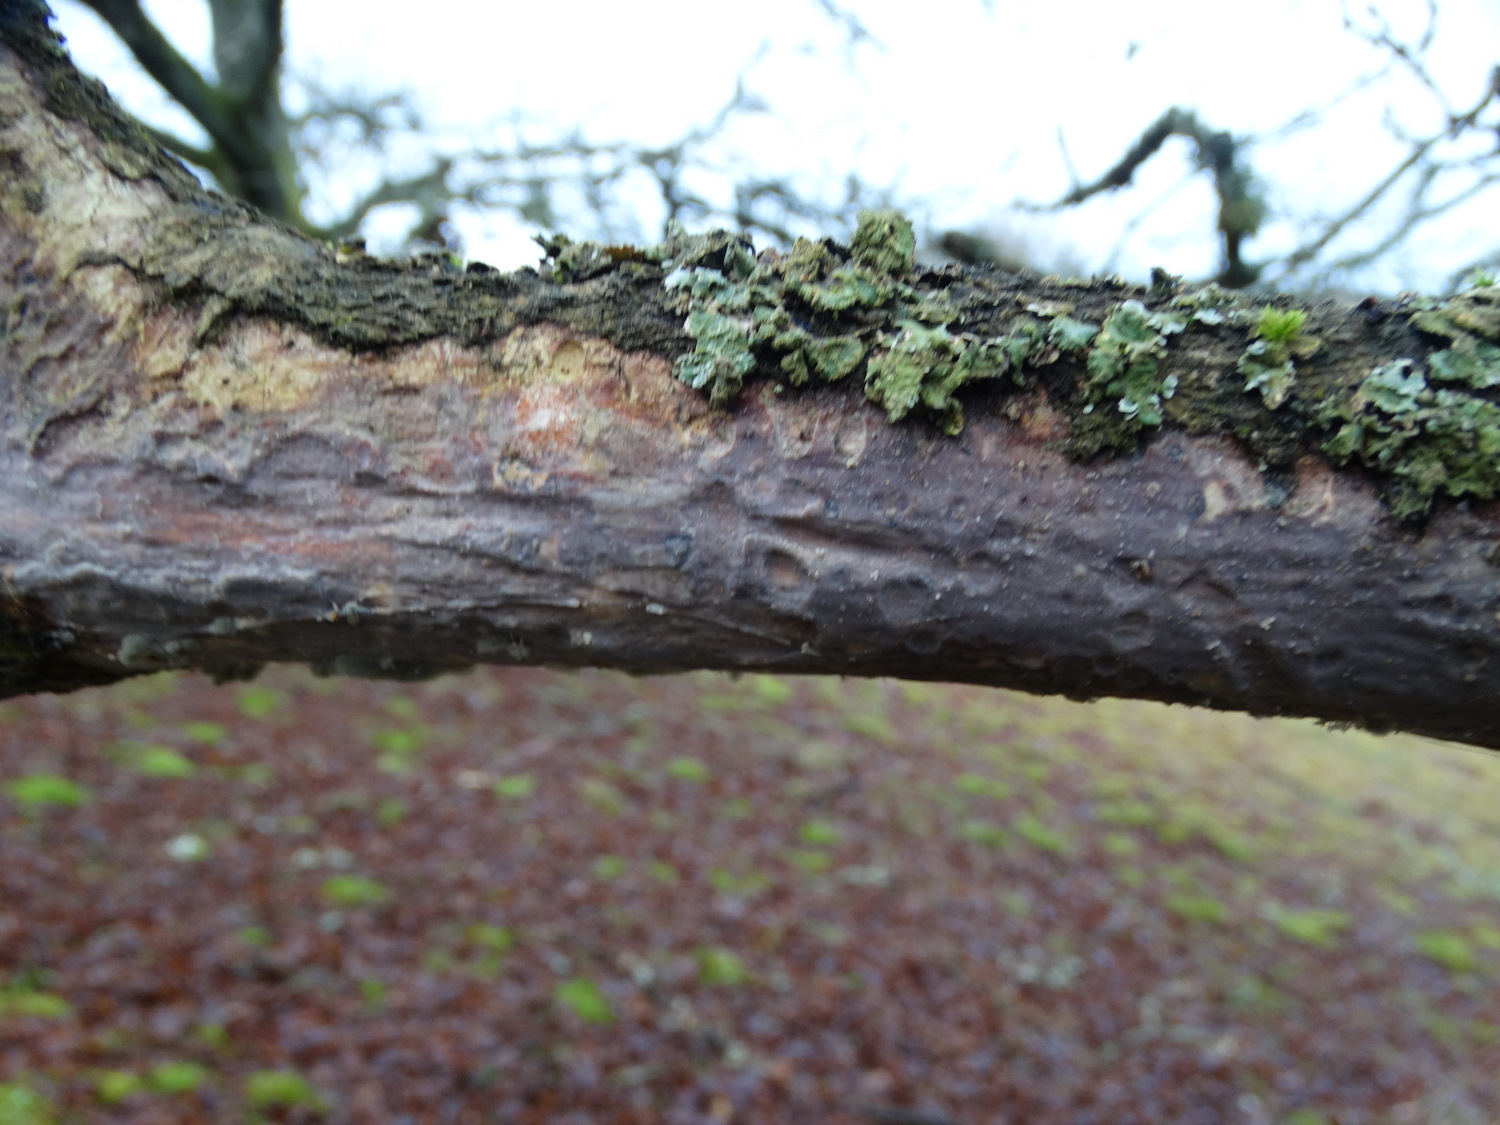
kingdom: Fungi
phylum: Basidiomycota
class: Agaricomycetes
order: Corticiales
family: Vuilleminiaceae
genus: Vuilleminia
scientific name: Vuilleminia comedens
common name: almindelig barksprænger
